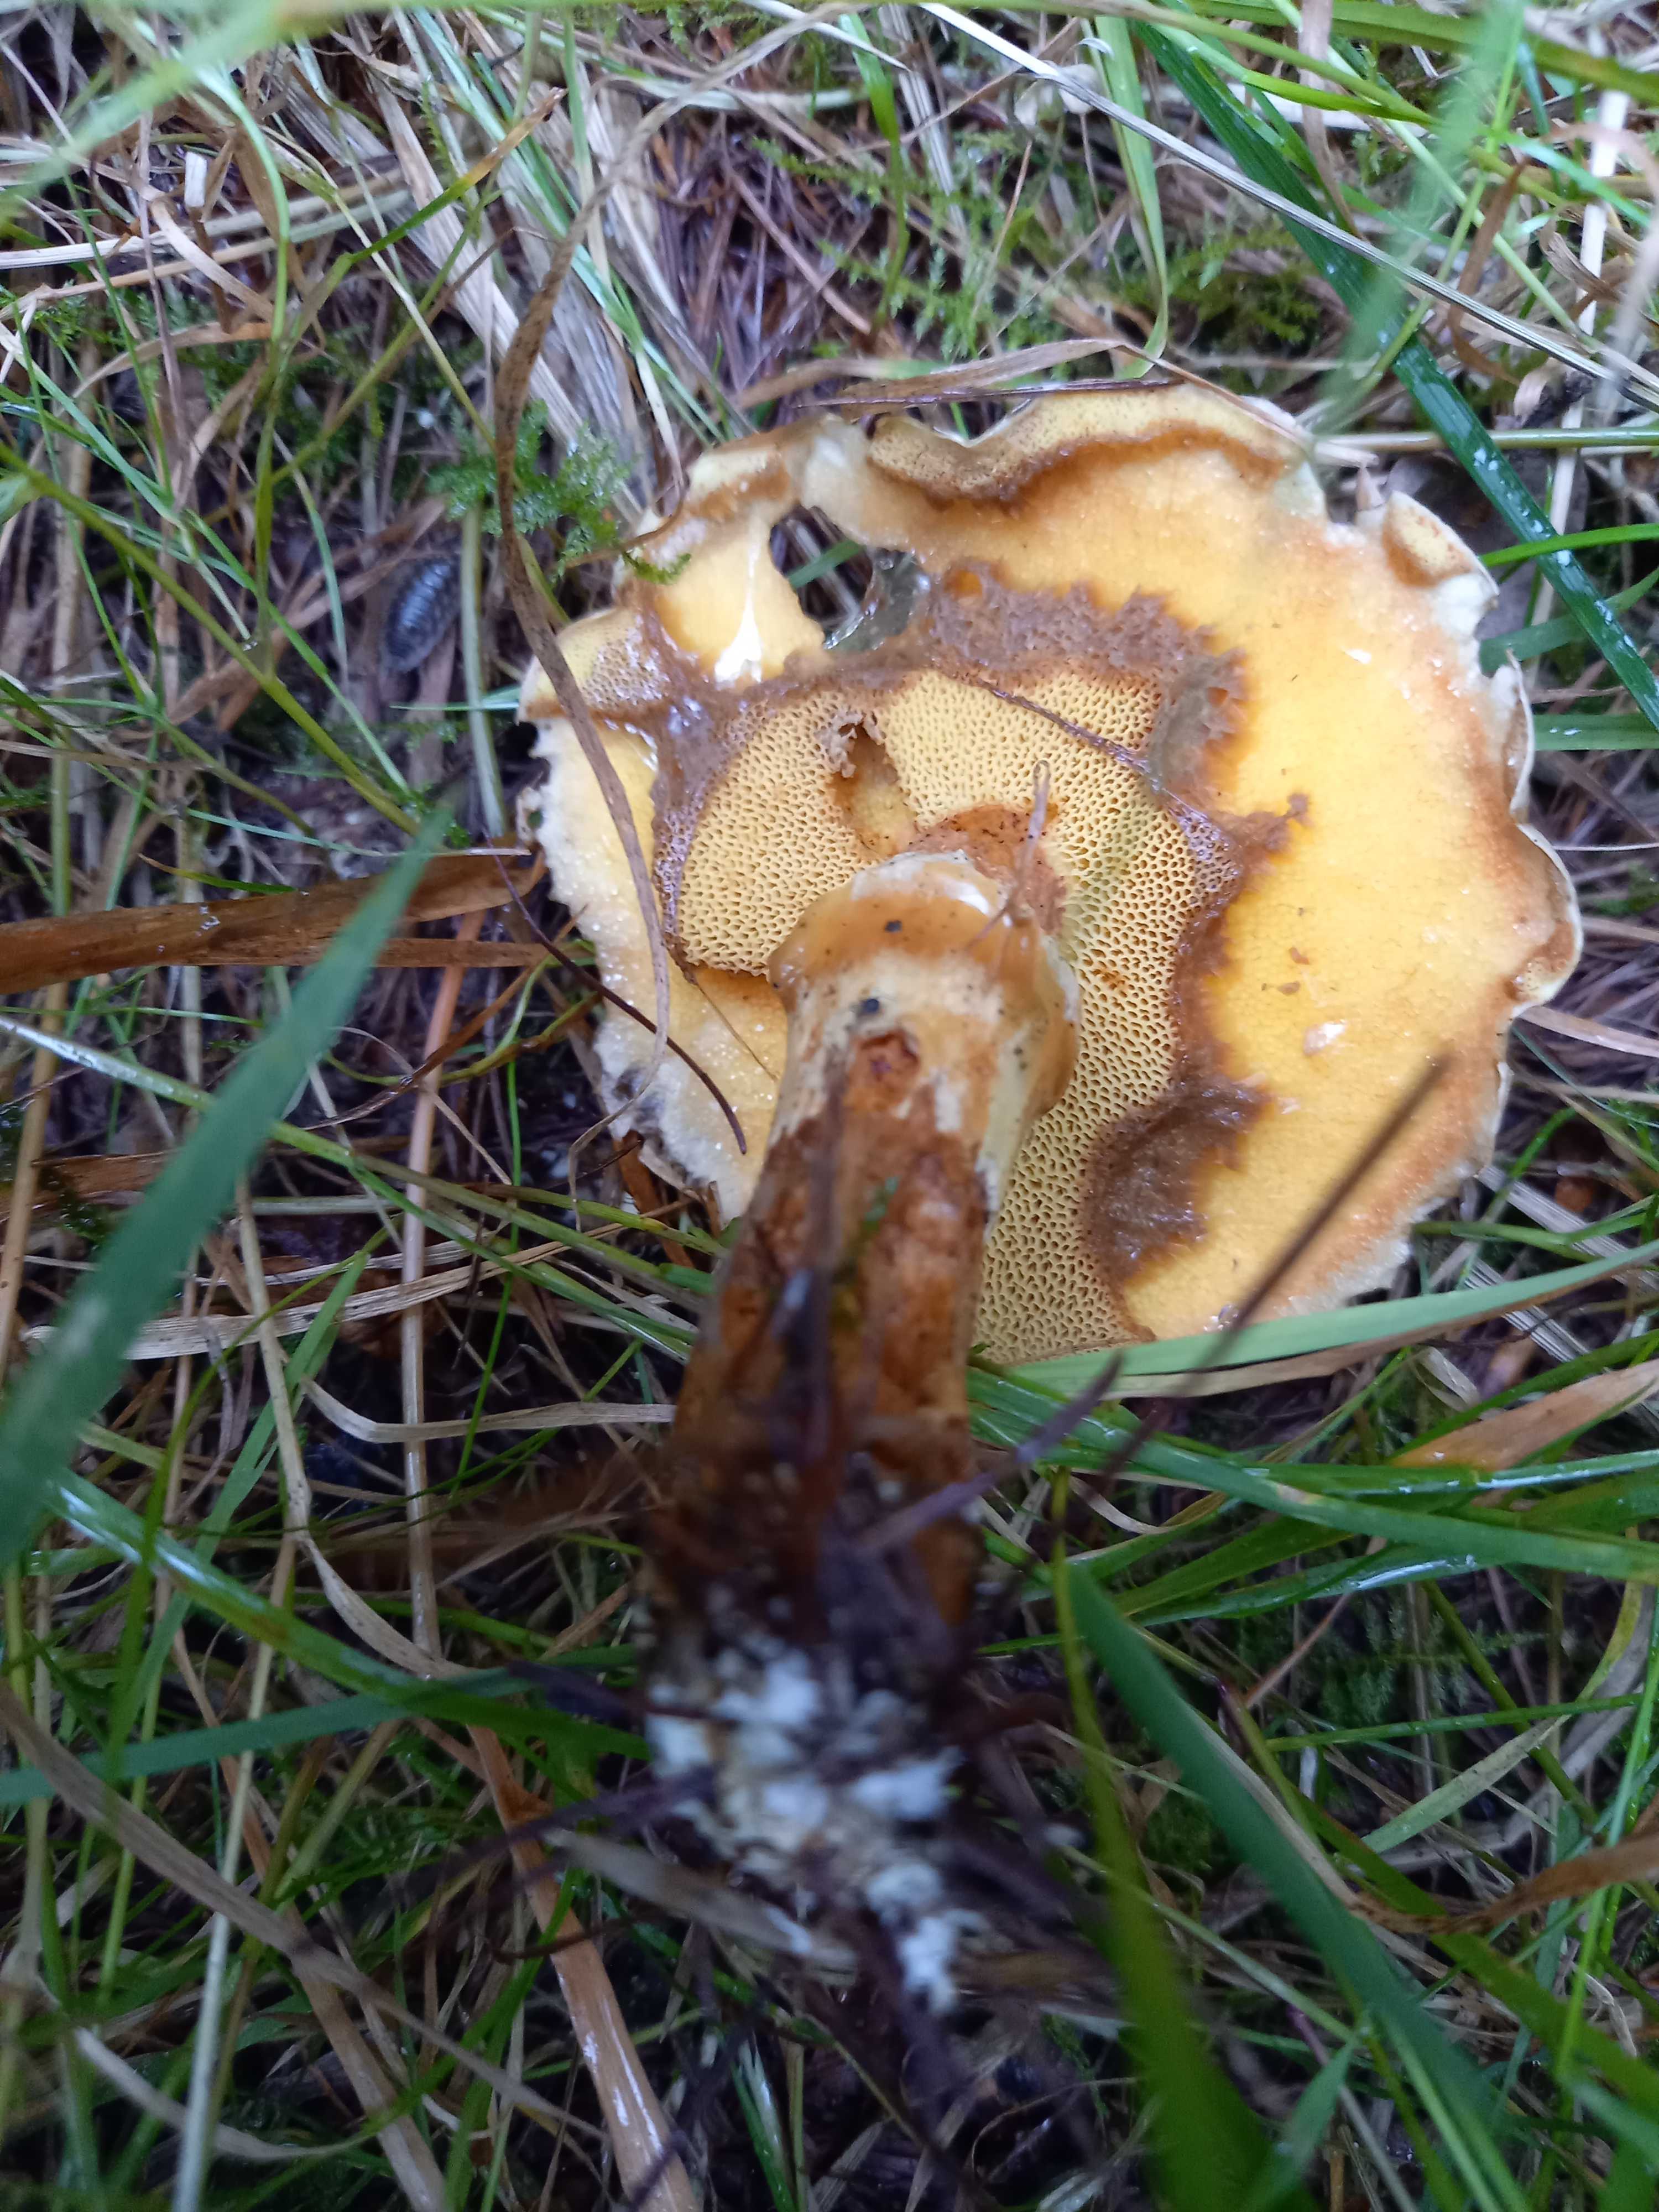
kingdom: Fungi
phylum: Basidiomycota
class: Agaricomycetes
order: Boletales
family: Suillaceae
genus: Suillus
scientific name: Suillus grevillei
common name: lærke-slimrørhat
